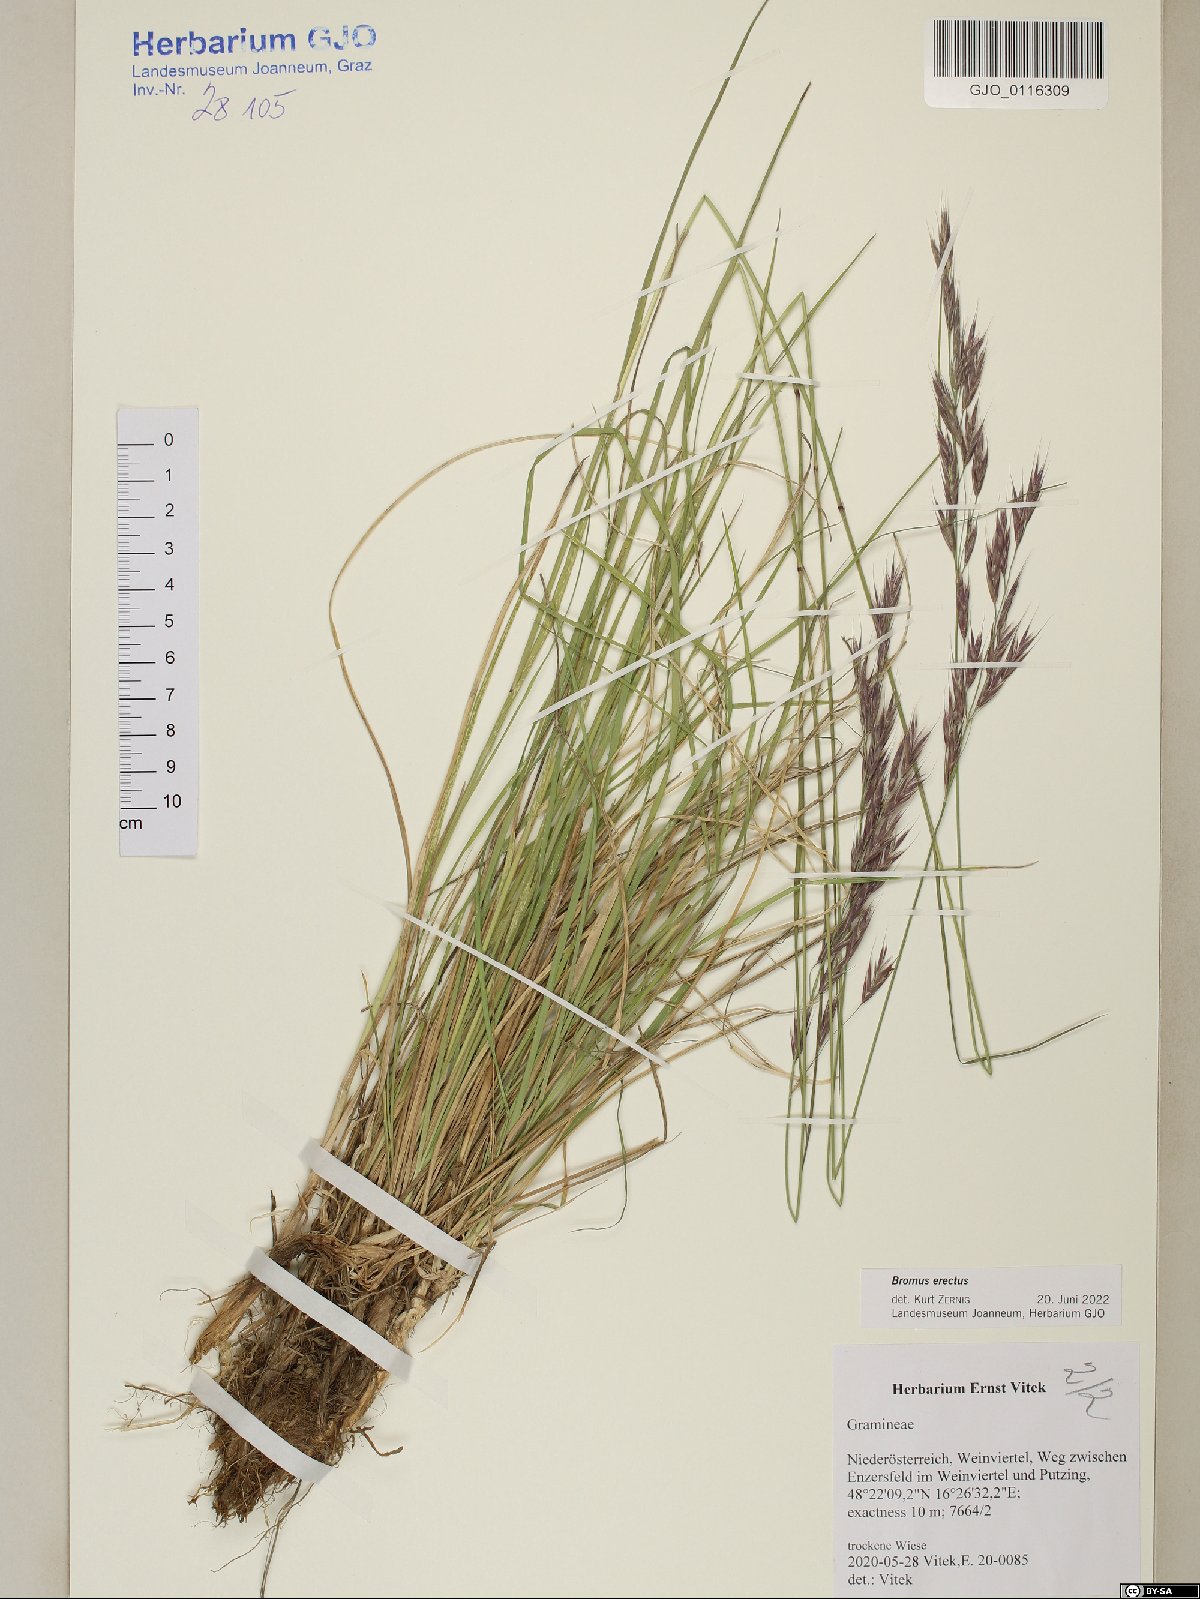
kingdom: Plantae
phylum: Tracheophyta
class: Liliopsida
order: Poales
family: Poaceae
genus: Bromus
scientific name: Bromus erectus
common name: Erect brome
